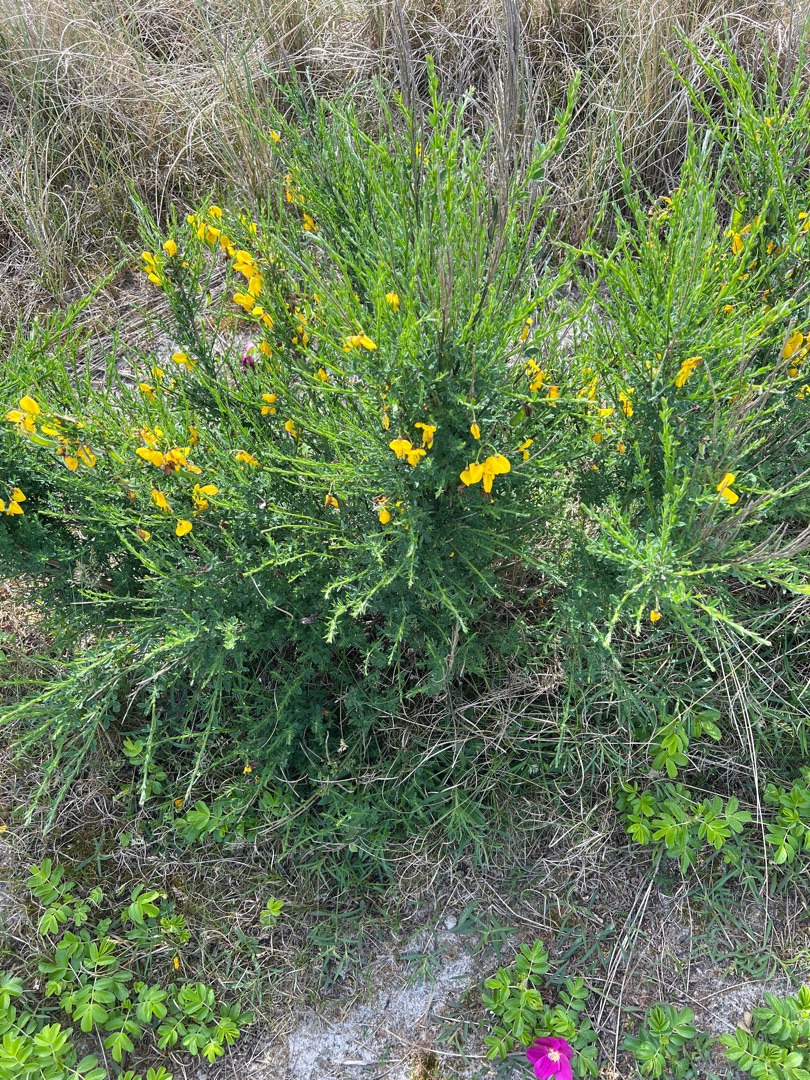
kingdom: Plantae
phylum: Tracheophyta
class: Magnoliopsida
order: Fabales
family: Fabaceae
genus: Cytisus
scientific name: Cytisus scoparius
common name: Almindelig gyvel
